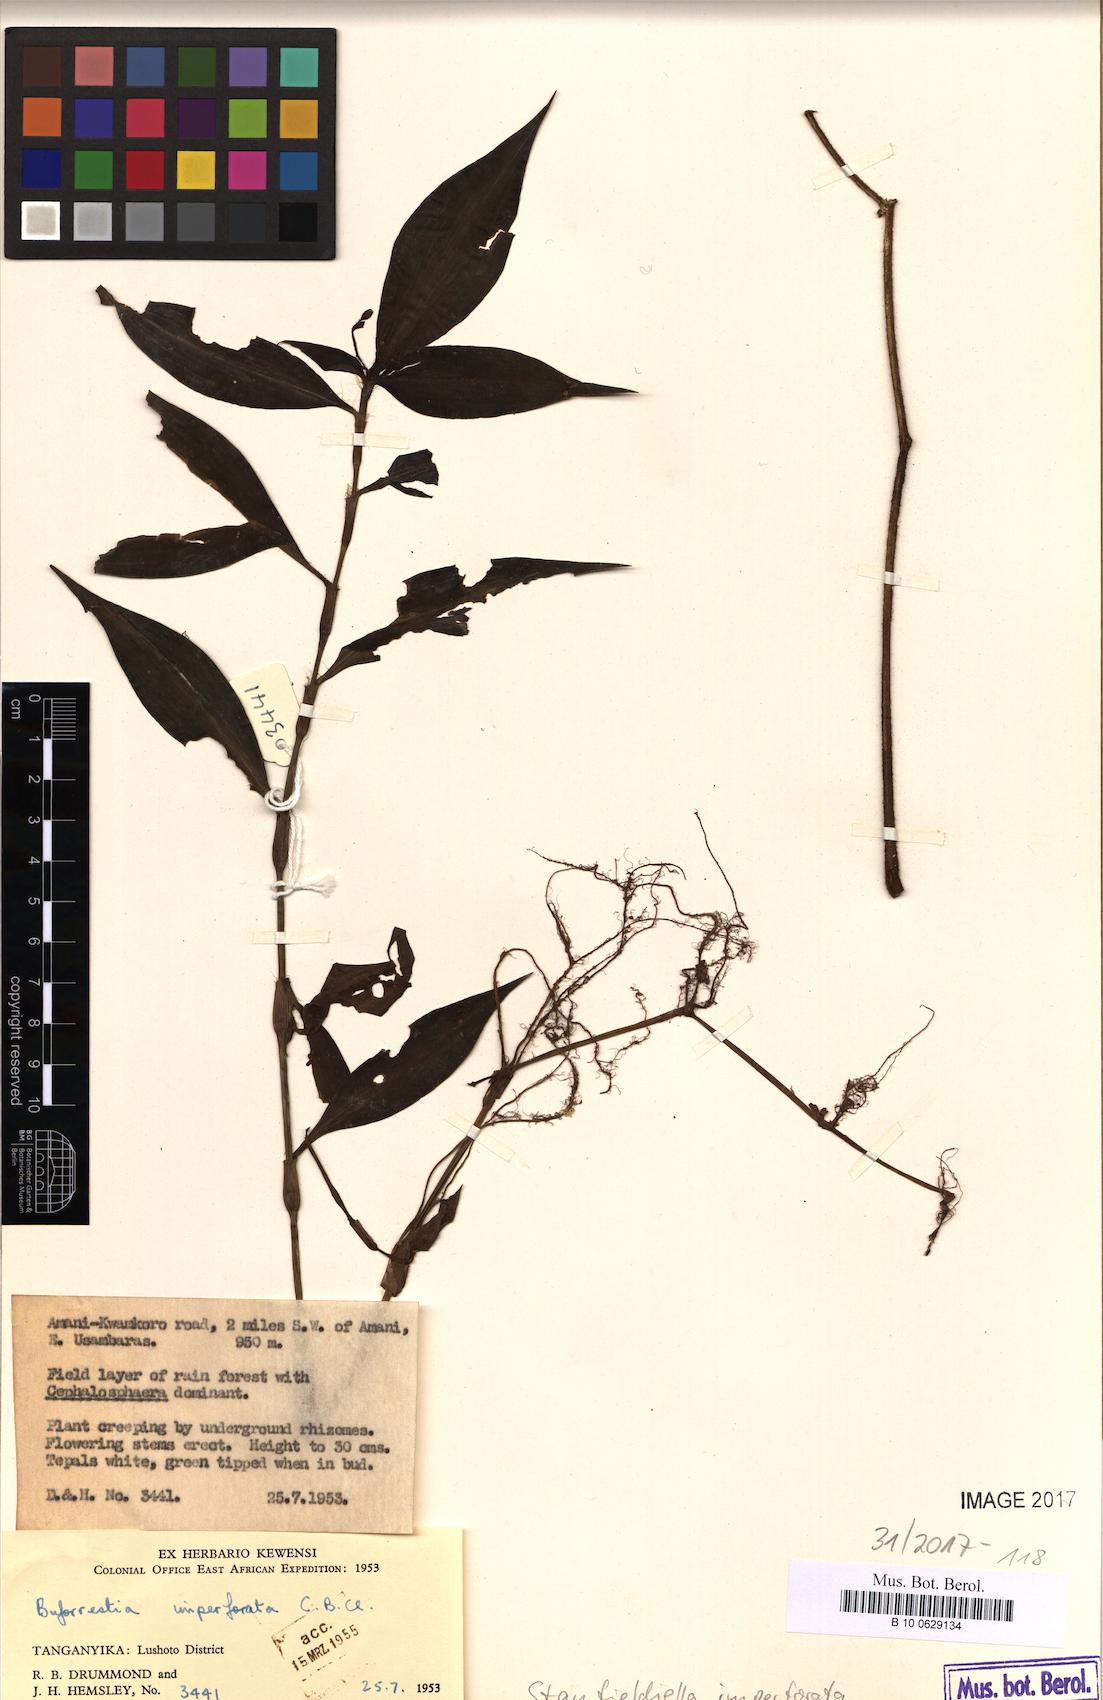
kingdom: Plantae
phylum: Tracheophyta
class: Liliopsida
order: Commelinales
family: Commelinaceae
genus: Stanfieldiella
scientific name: Stanfieldiella imperforata
